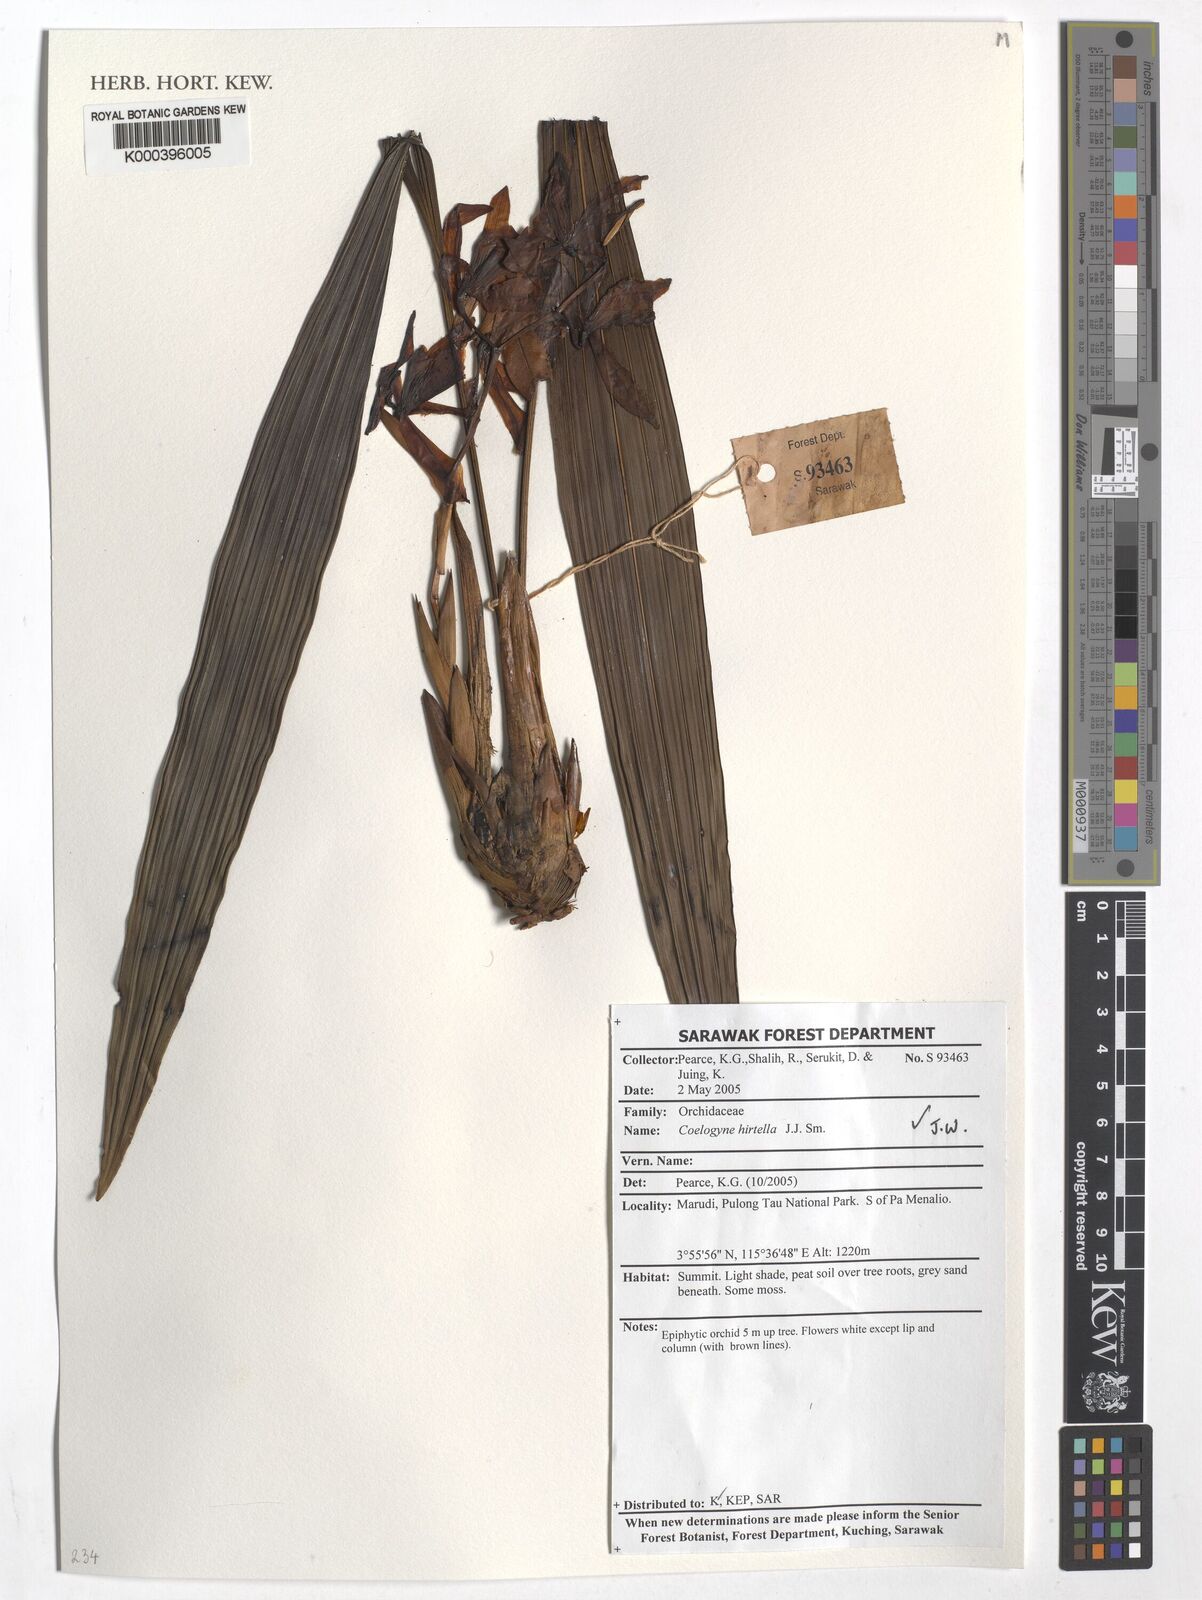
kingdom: Plantae
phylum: Tracheophyta
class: Liliopsida
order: Asparagales
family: Orchidaceae
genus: Coelogyne
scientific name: Coelogyne hirtella
